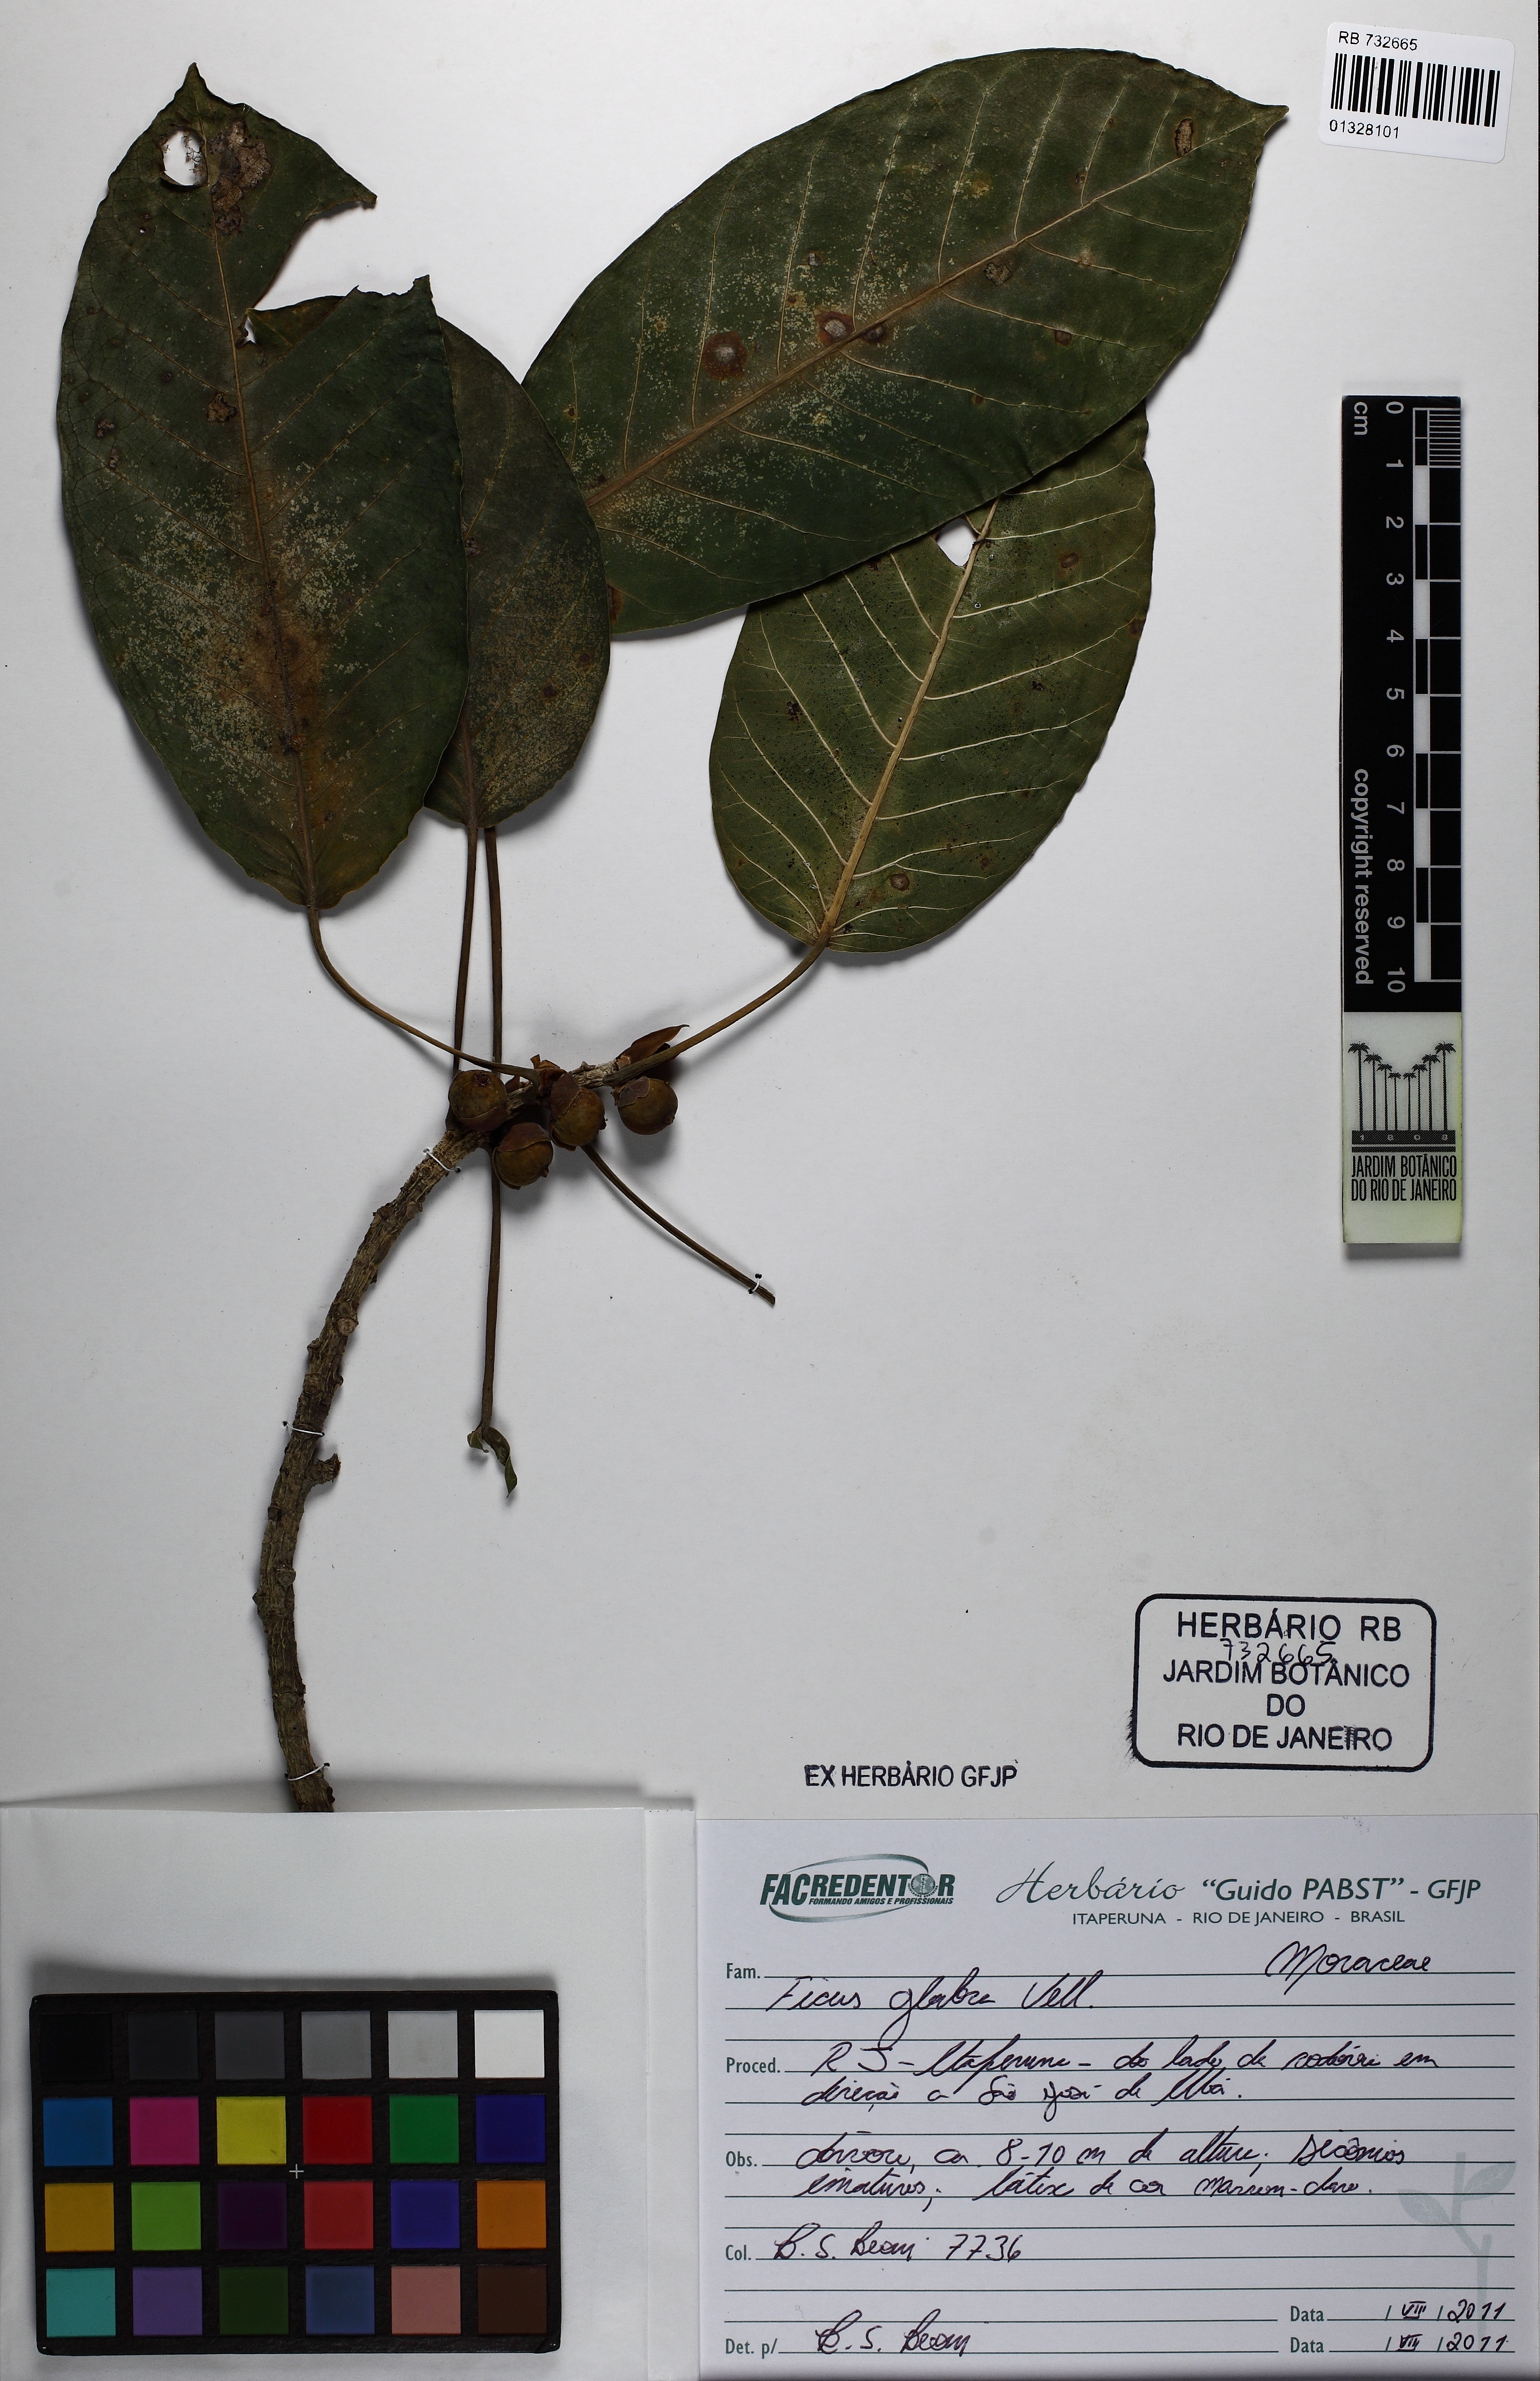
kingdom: Plantae
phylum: Tracheophyta
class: Magnoliopsida
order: Rosales
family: Moraceae
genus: Ficus
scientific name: Ficus eximia
